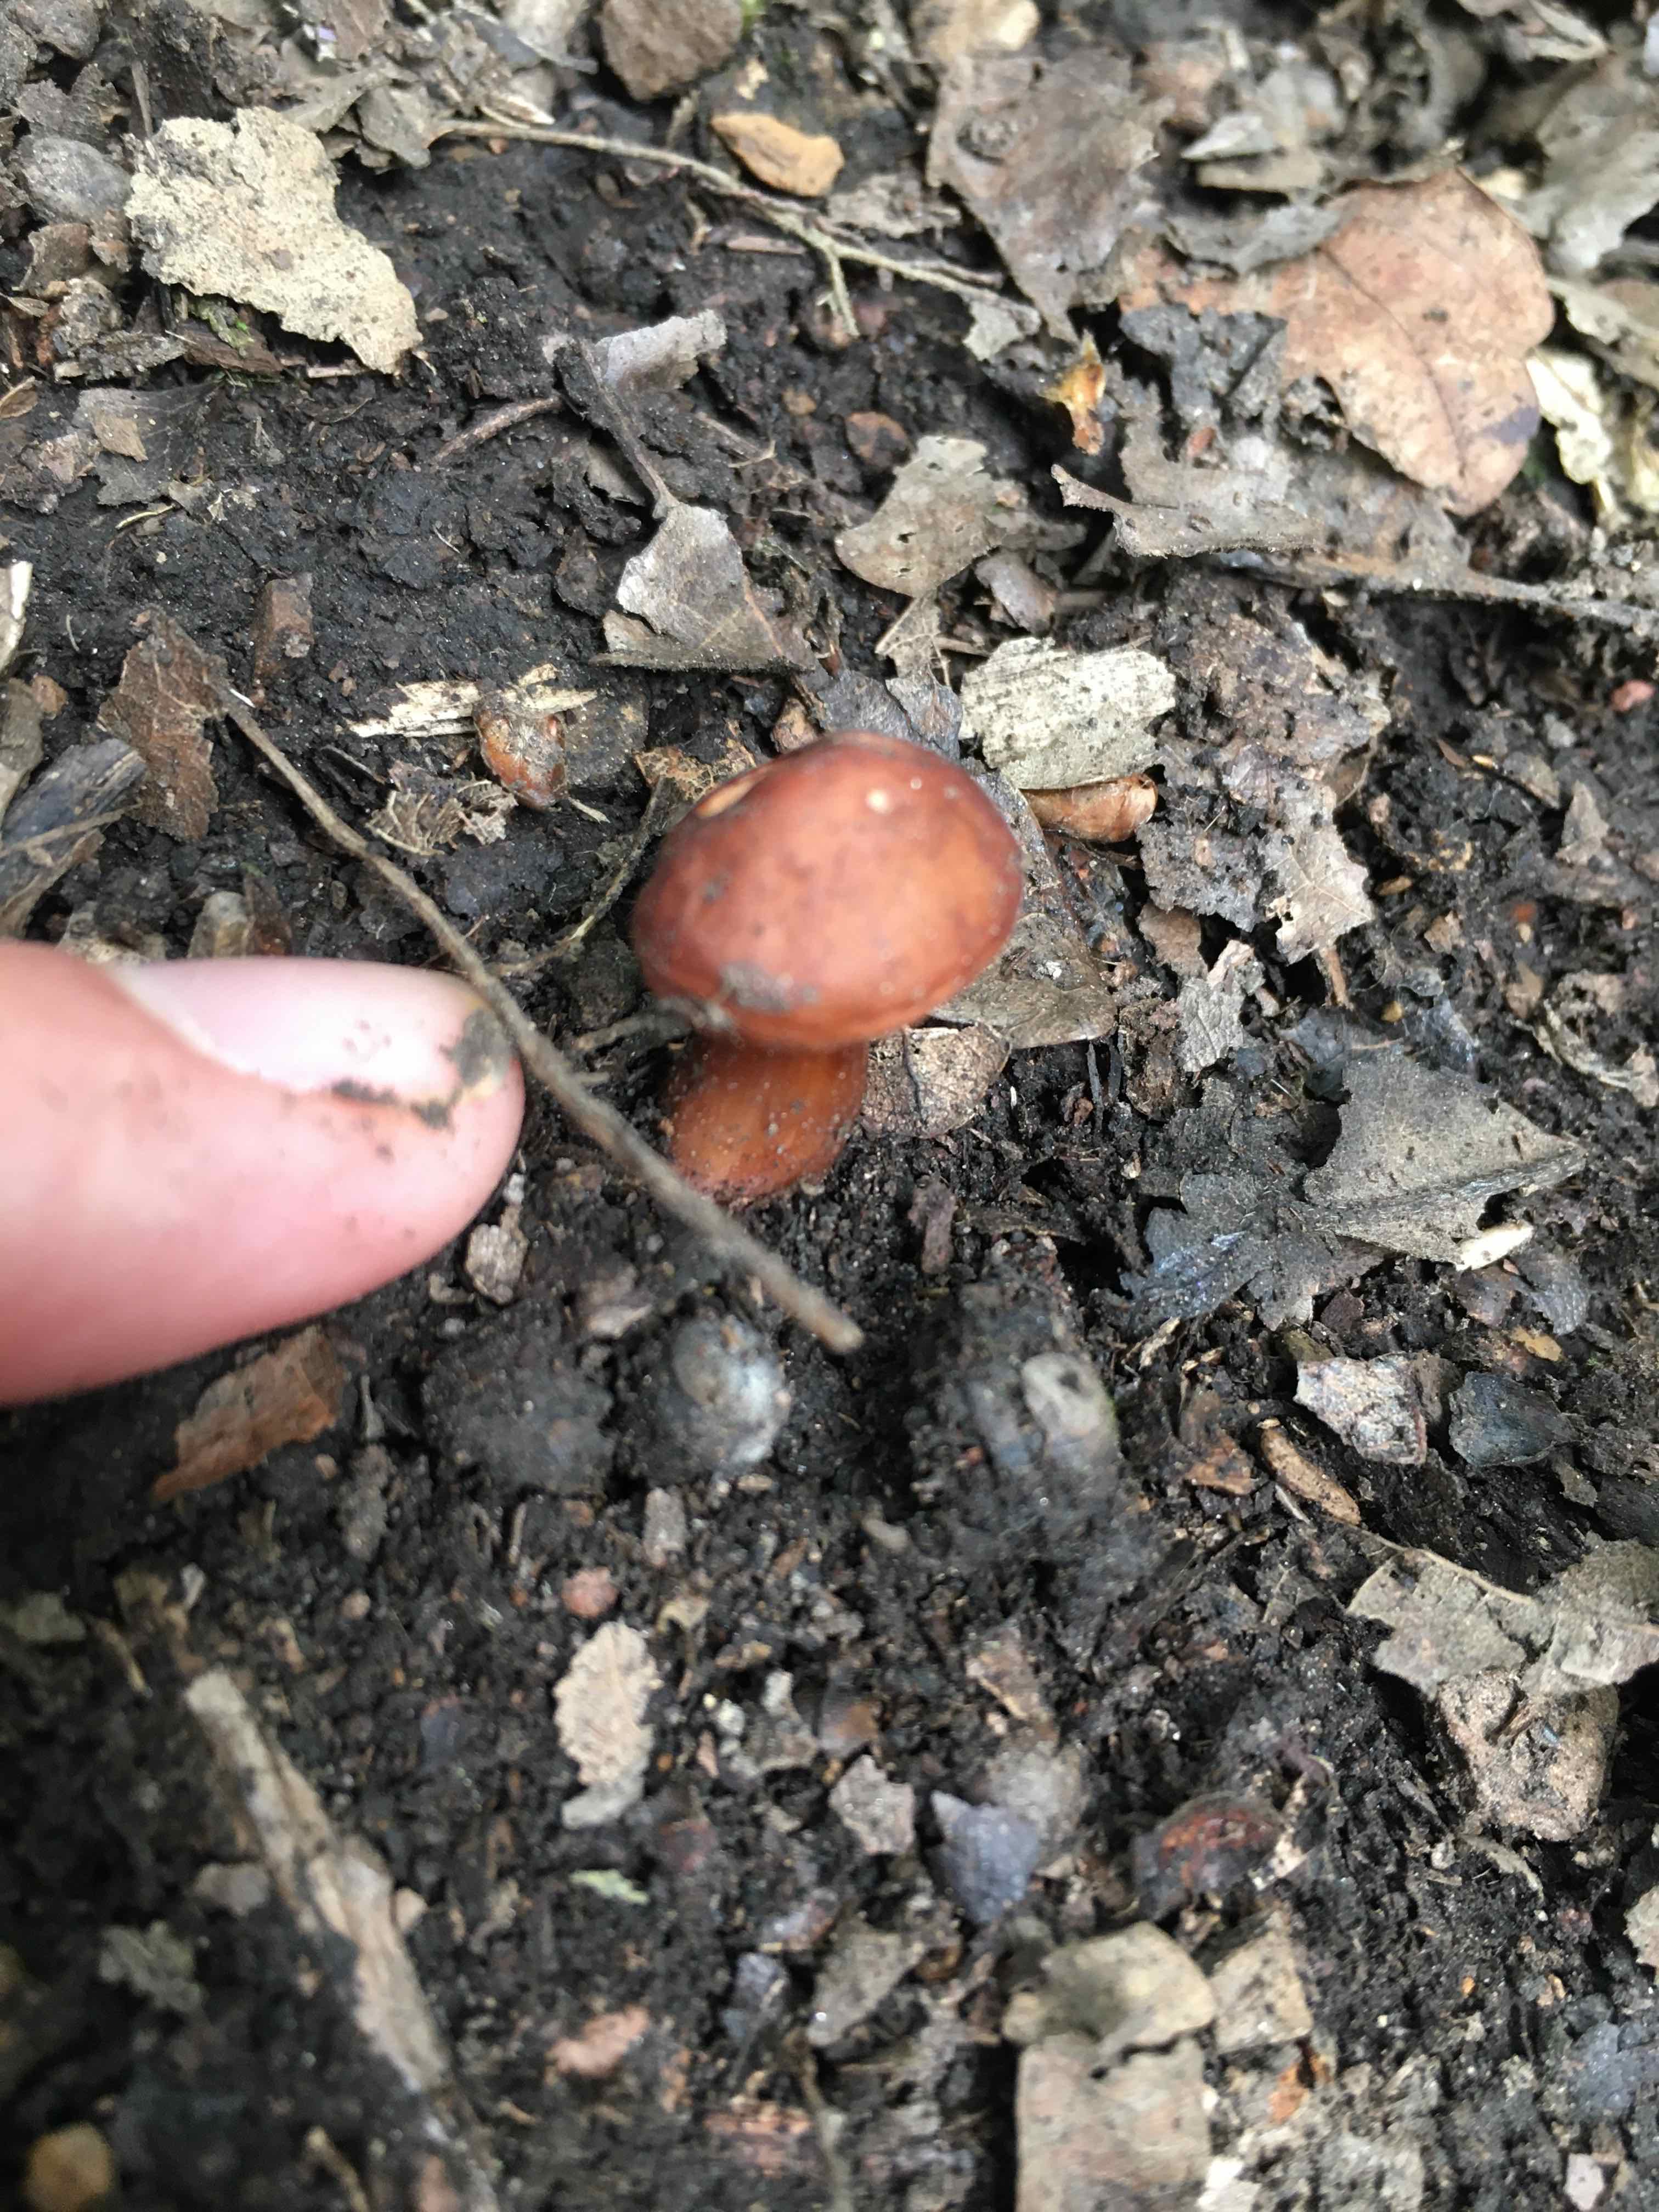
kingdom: Fungi
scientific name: Fungi
